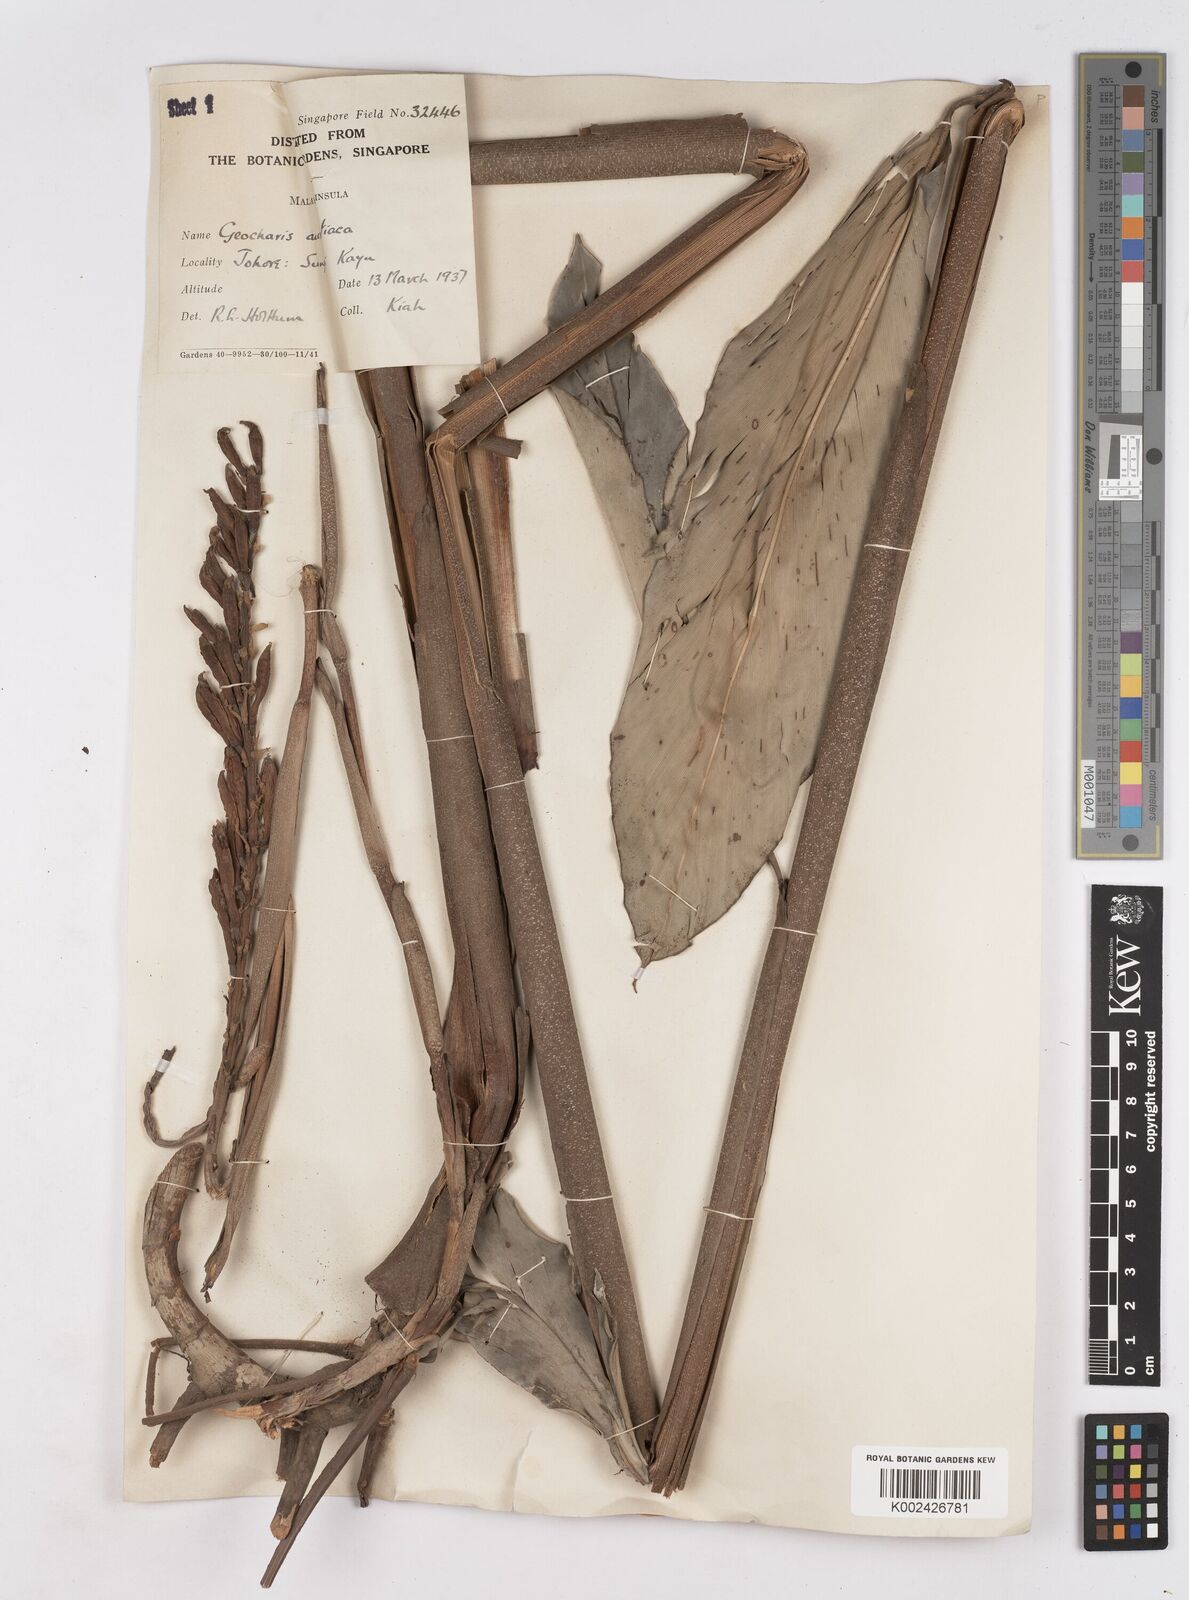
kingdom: Plantae
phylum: Tracheophyta
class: Liliopsida
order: Zingiberales
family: Zingiberaceae
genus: Geocharis
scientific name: Geocharis aurantiaca
